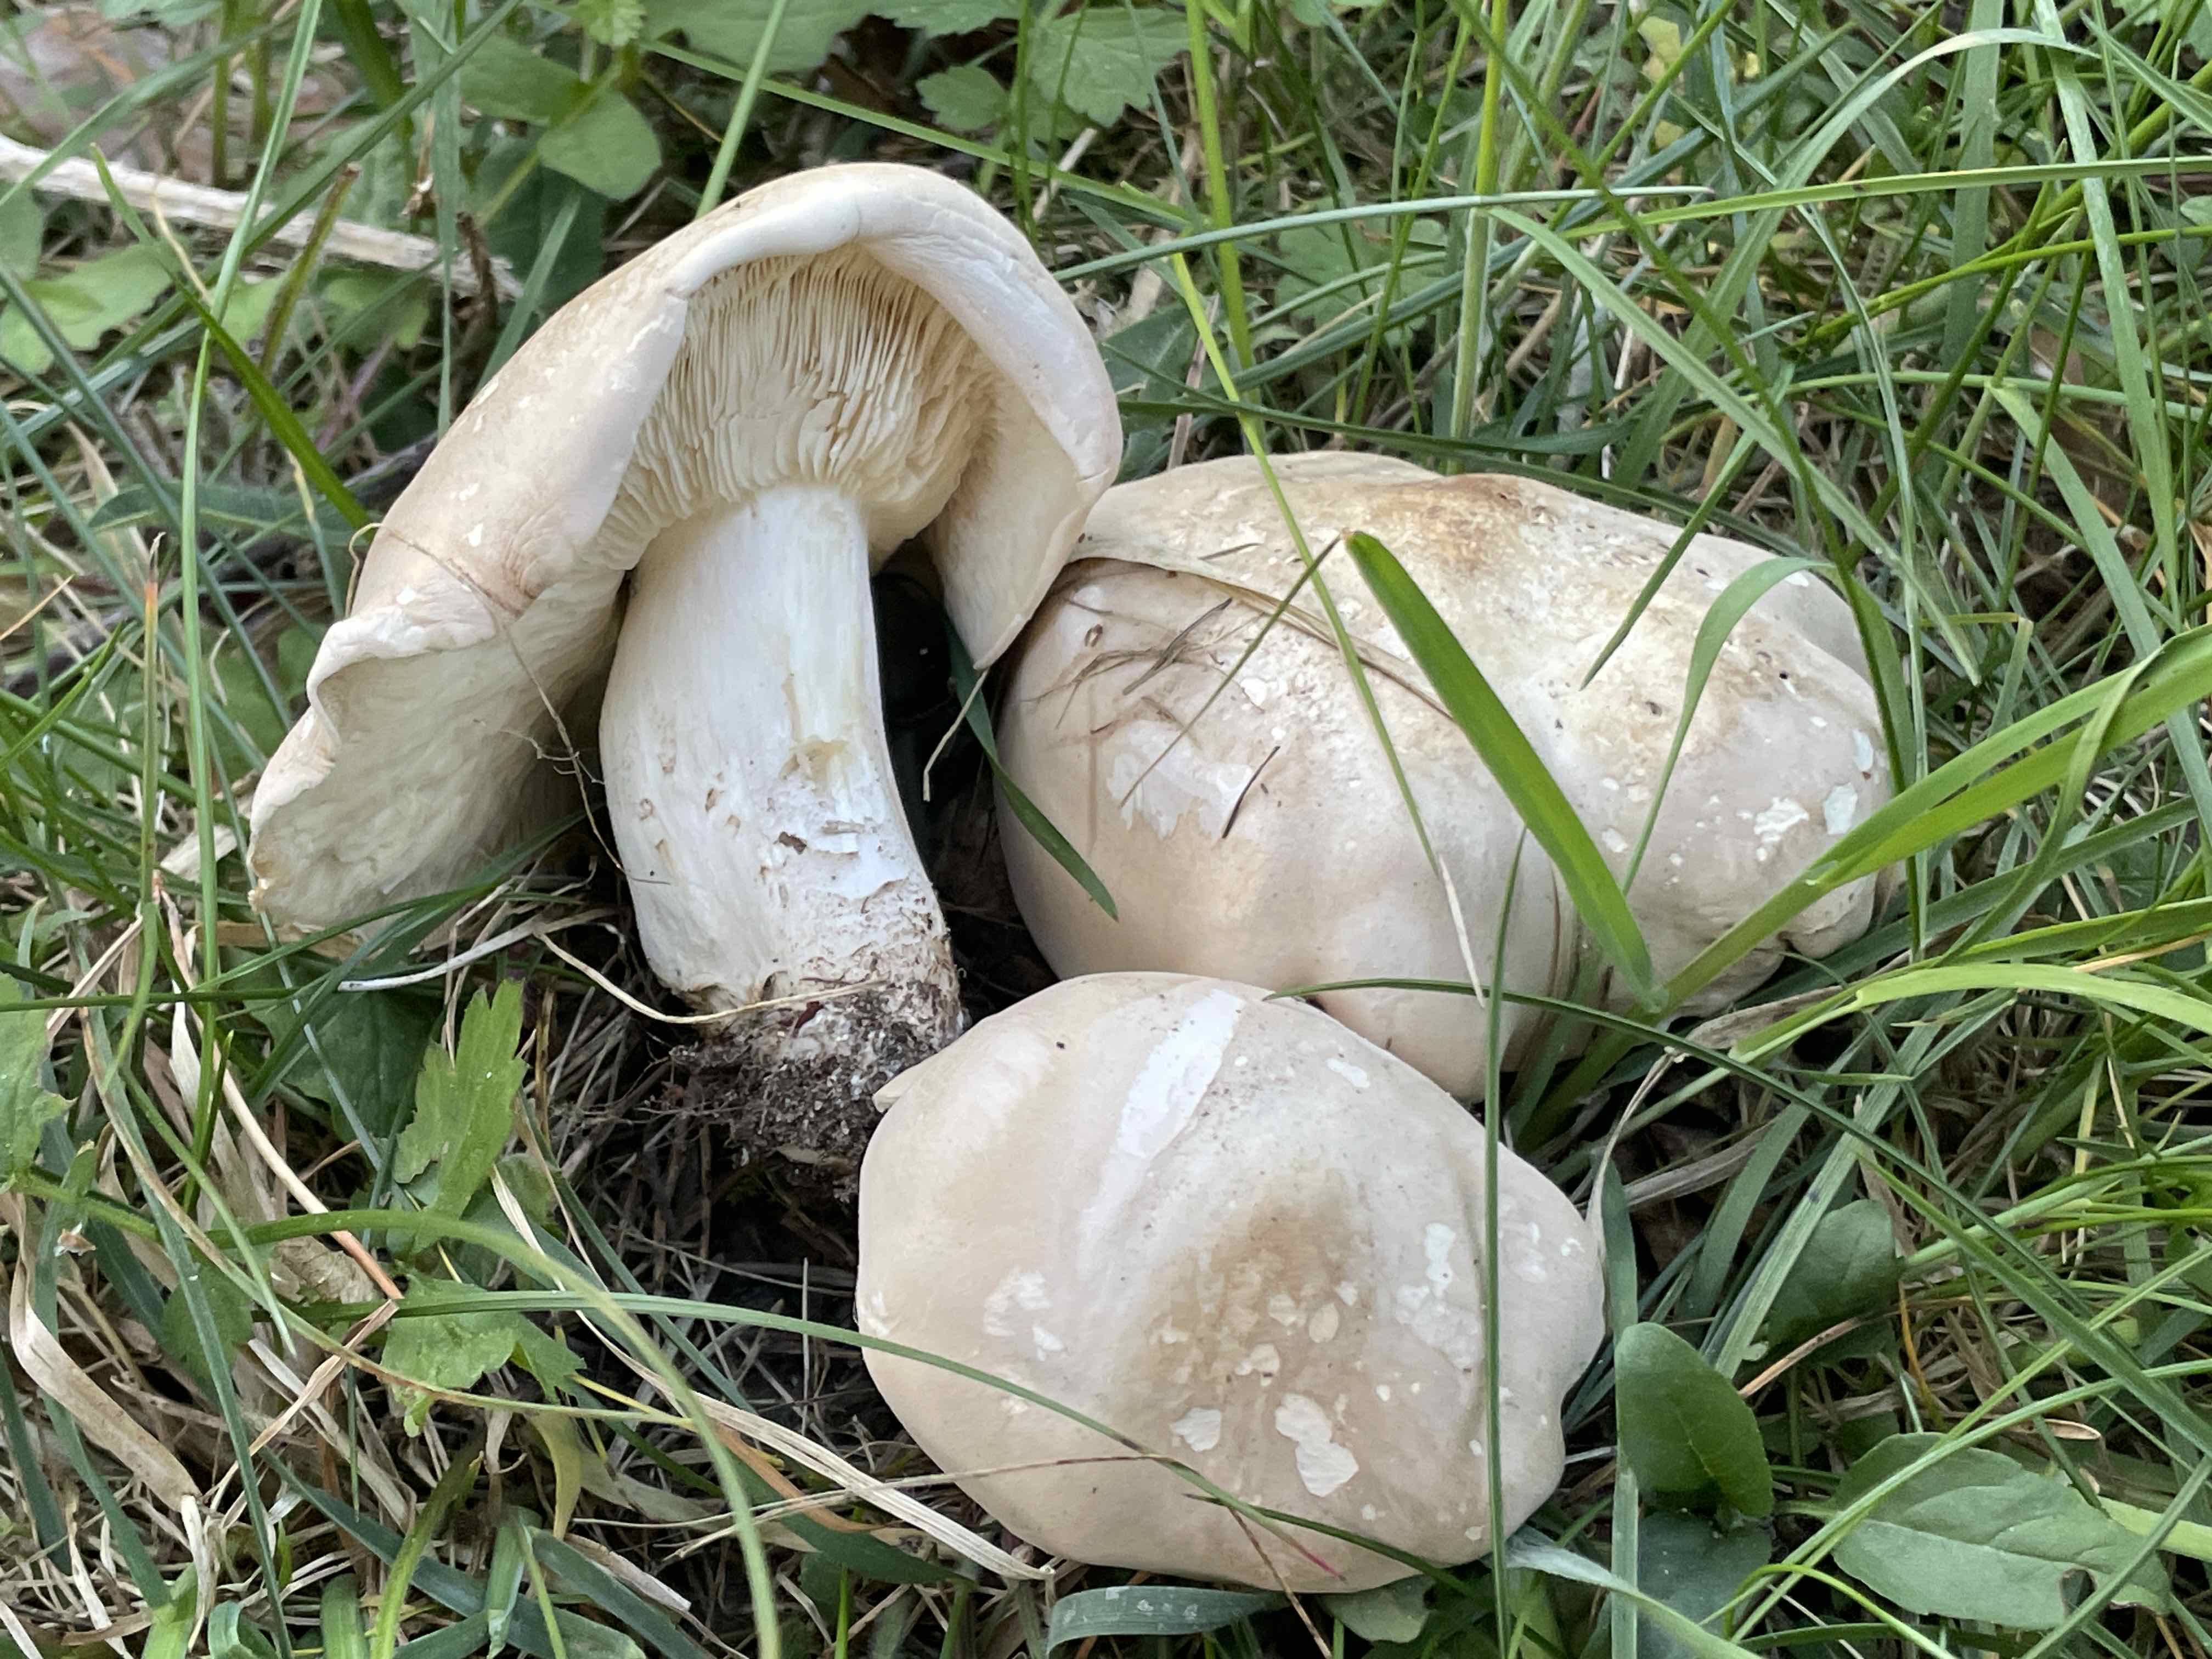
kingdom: Fungi
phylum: Basidiomycota
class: Agaricomycetes
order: Agaricales
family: Lyophyllaceae
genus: Calocybe
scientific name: Calocybe gambosa
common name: vårmusseron
